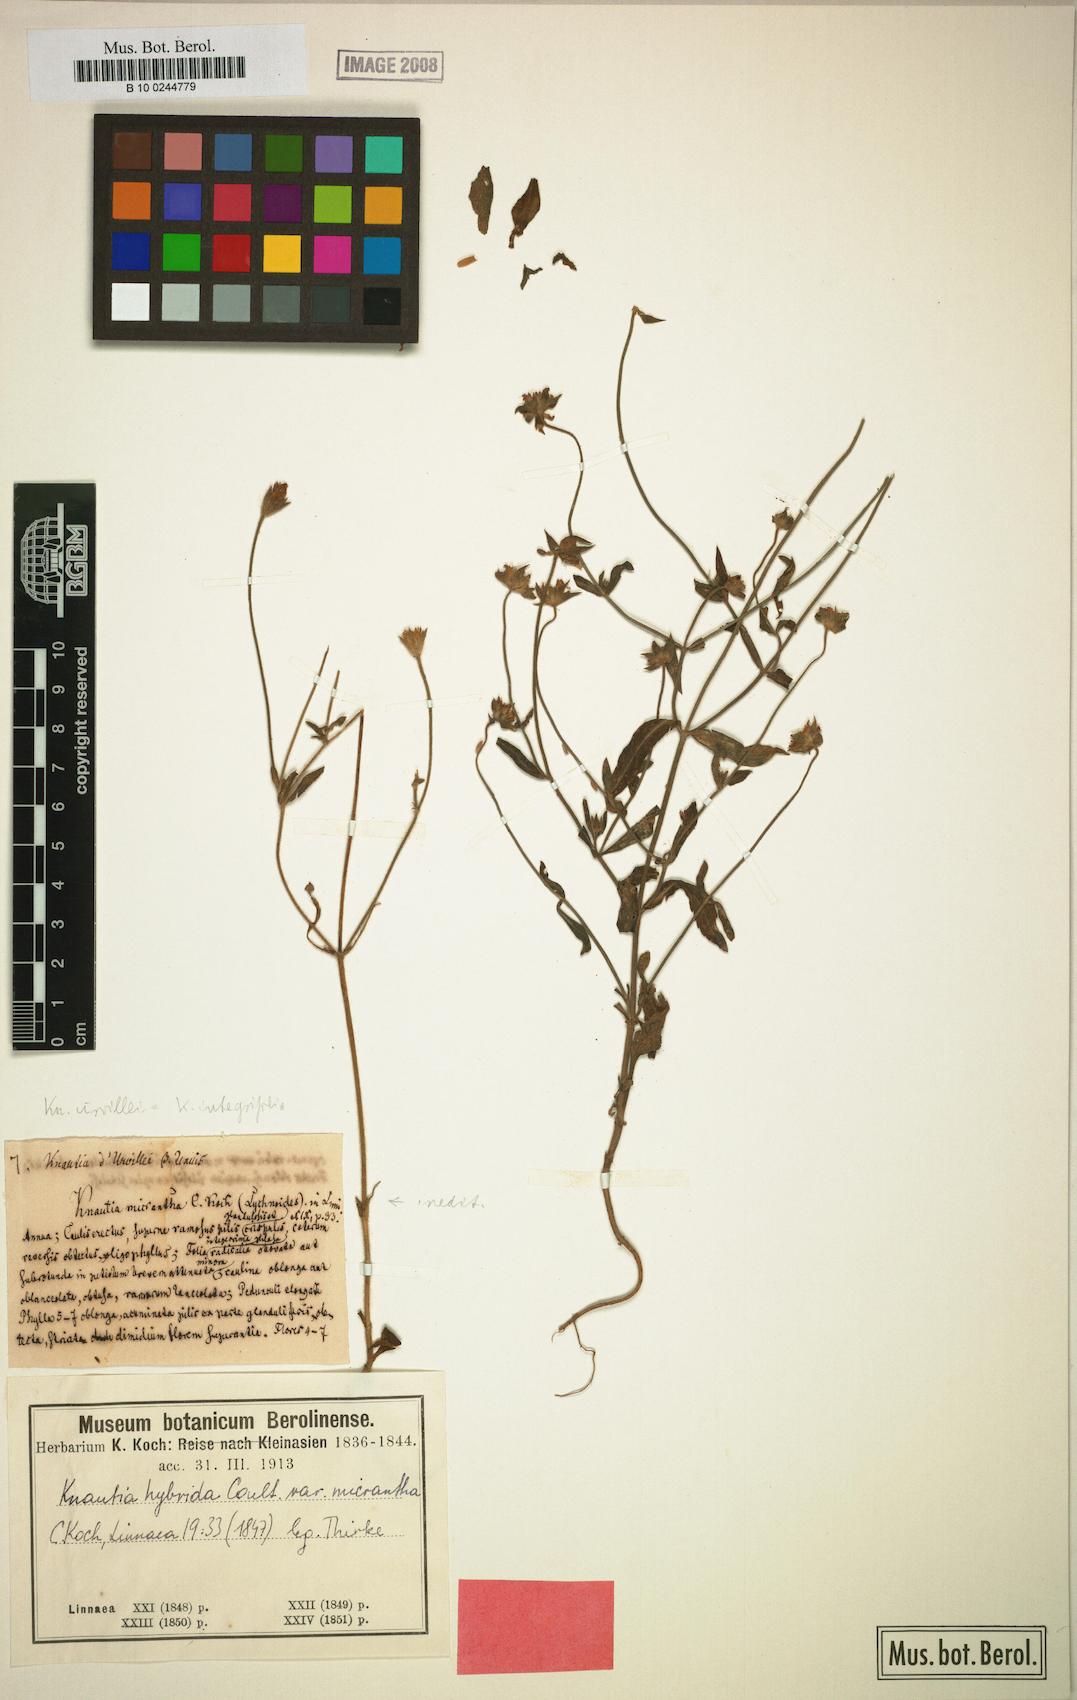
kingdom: Plantae
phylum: Tracheophyta
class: Magnoliopsida
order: Dipsacales
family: Caprifoliaceae
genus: Knautia
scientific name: Knautia integrifolia
